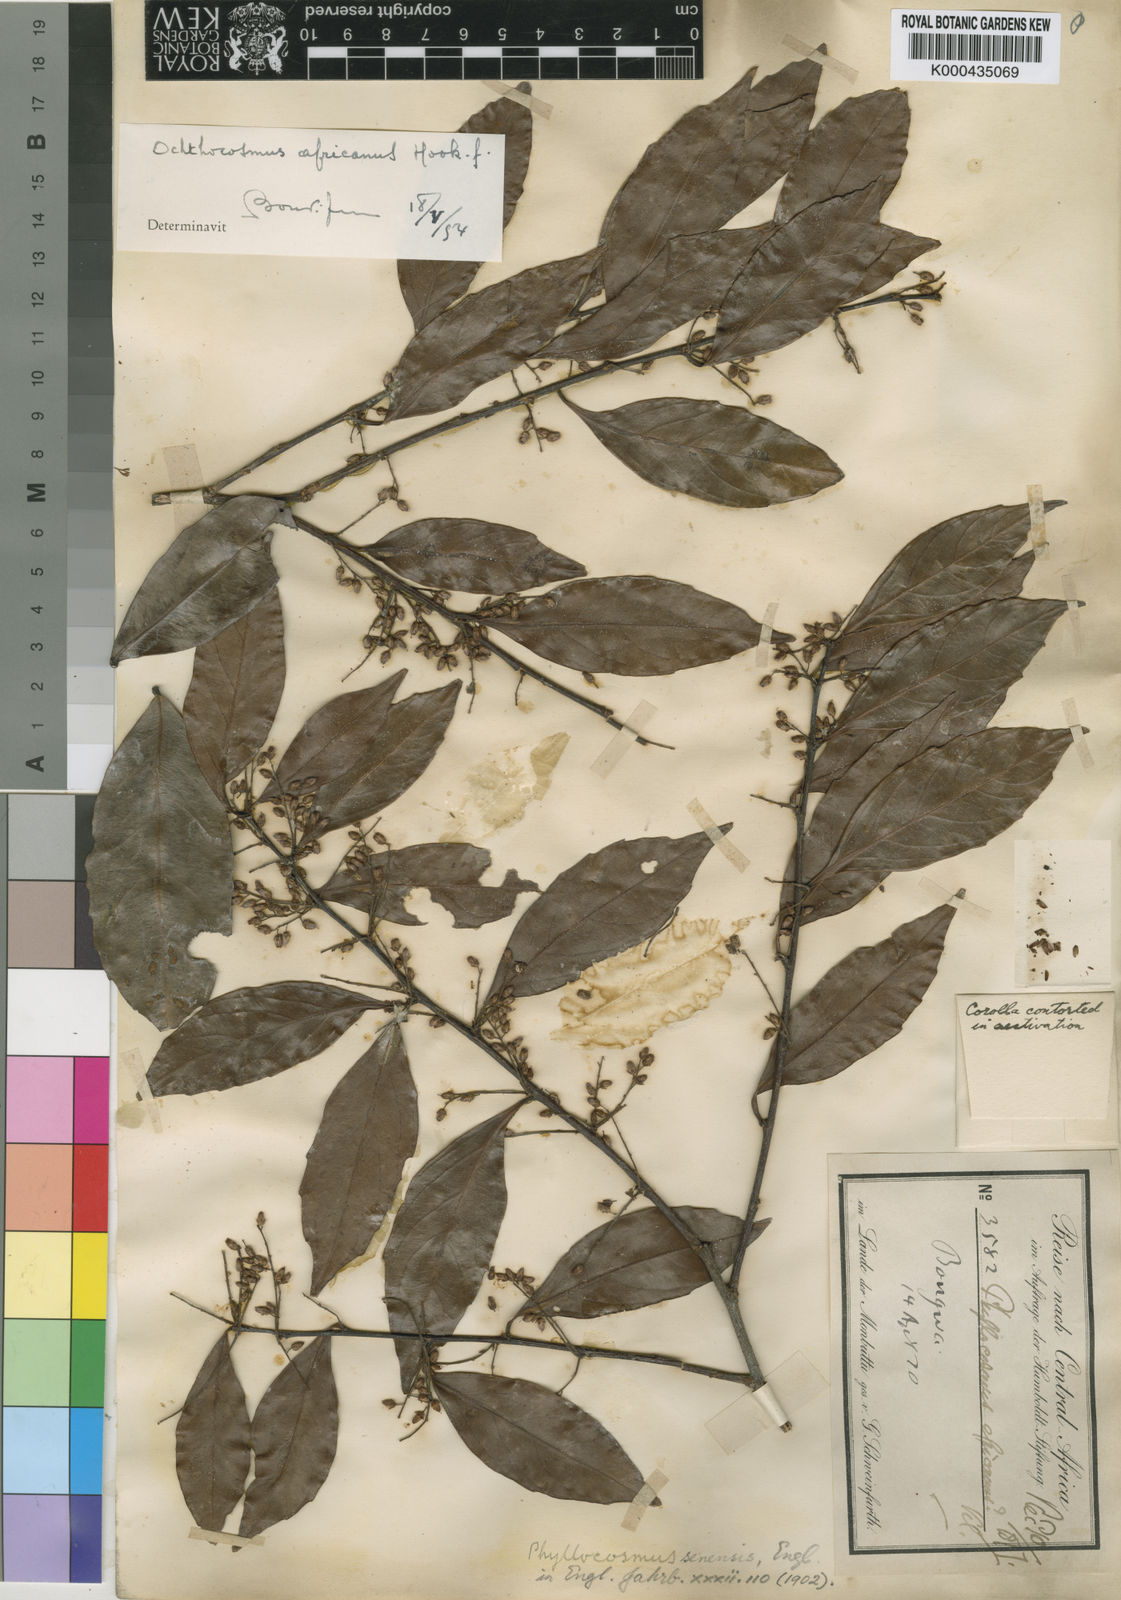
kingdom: Plantae
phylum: Tracheophyta
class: Magnoliopsida
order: Malpighiales
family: Ixonanthaceae
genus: Phyllocosmus
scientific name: Phyllocosmus africanus
